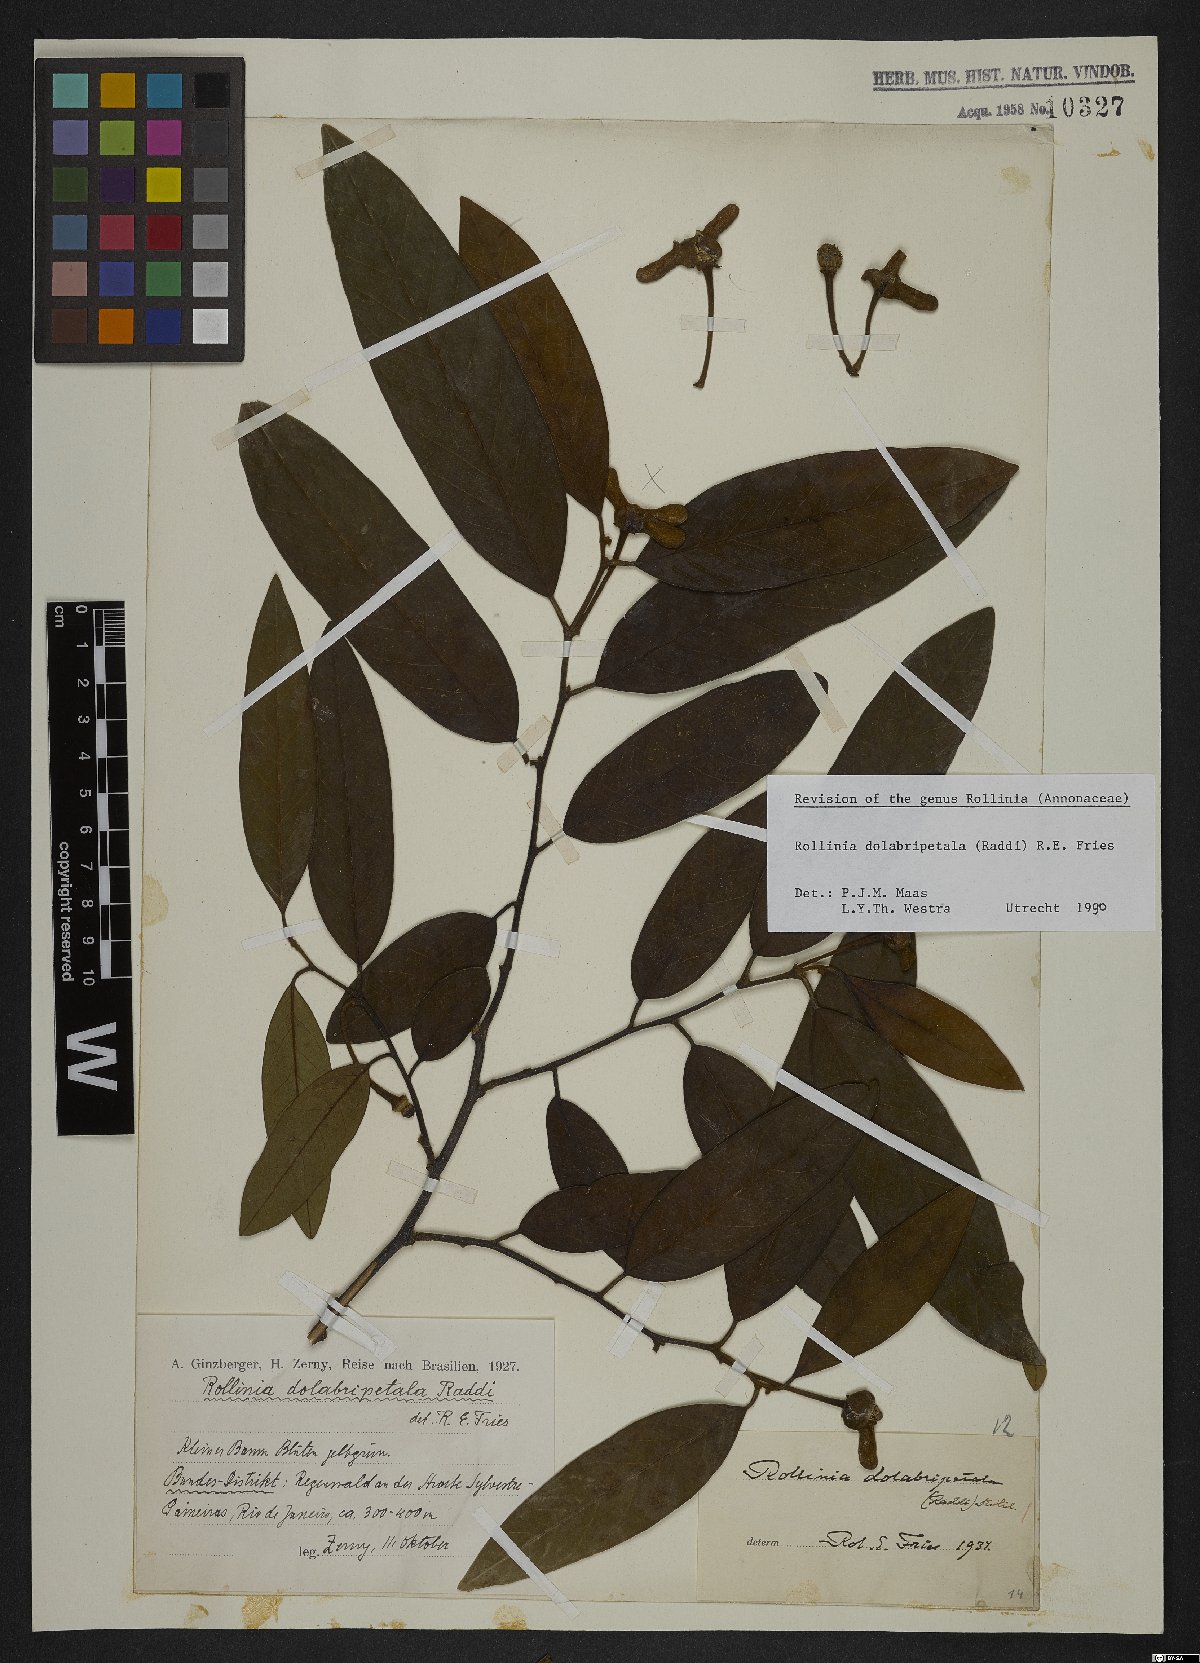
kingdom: Plantae
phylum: Tracheophyta
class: Magnoliopsida
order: Magnoliales
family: Annonaceae
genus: Annona
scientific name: Annona dolabripetala
